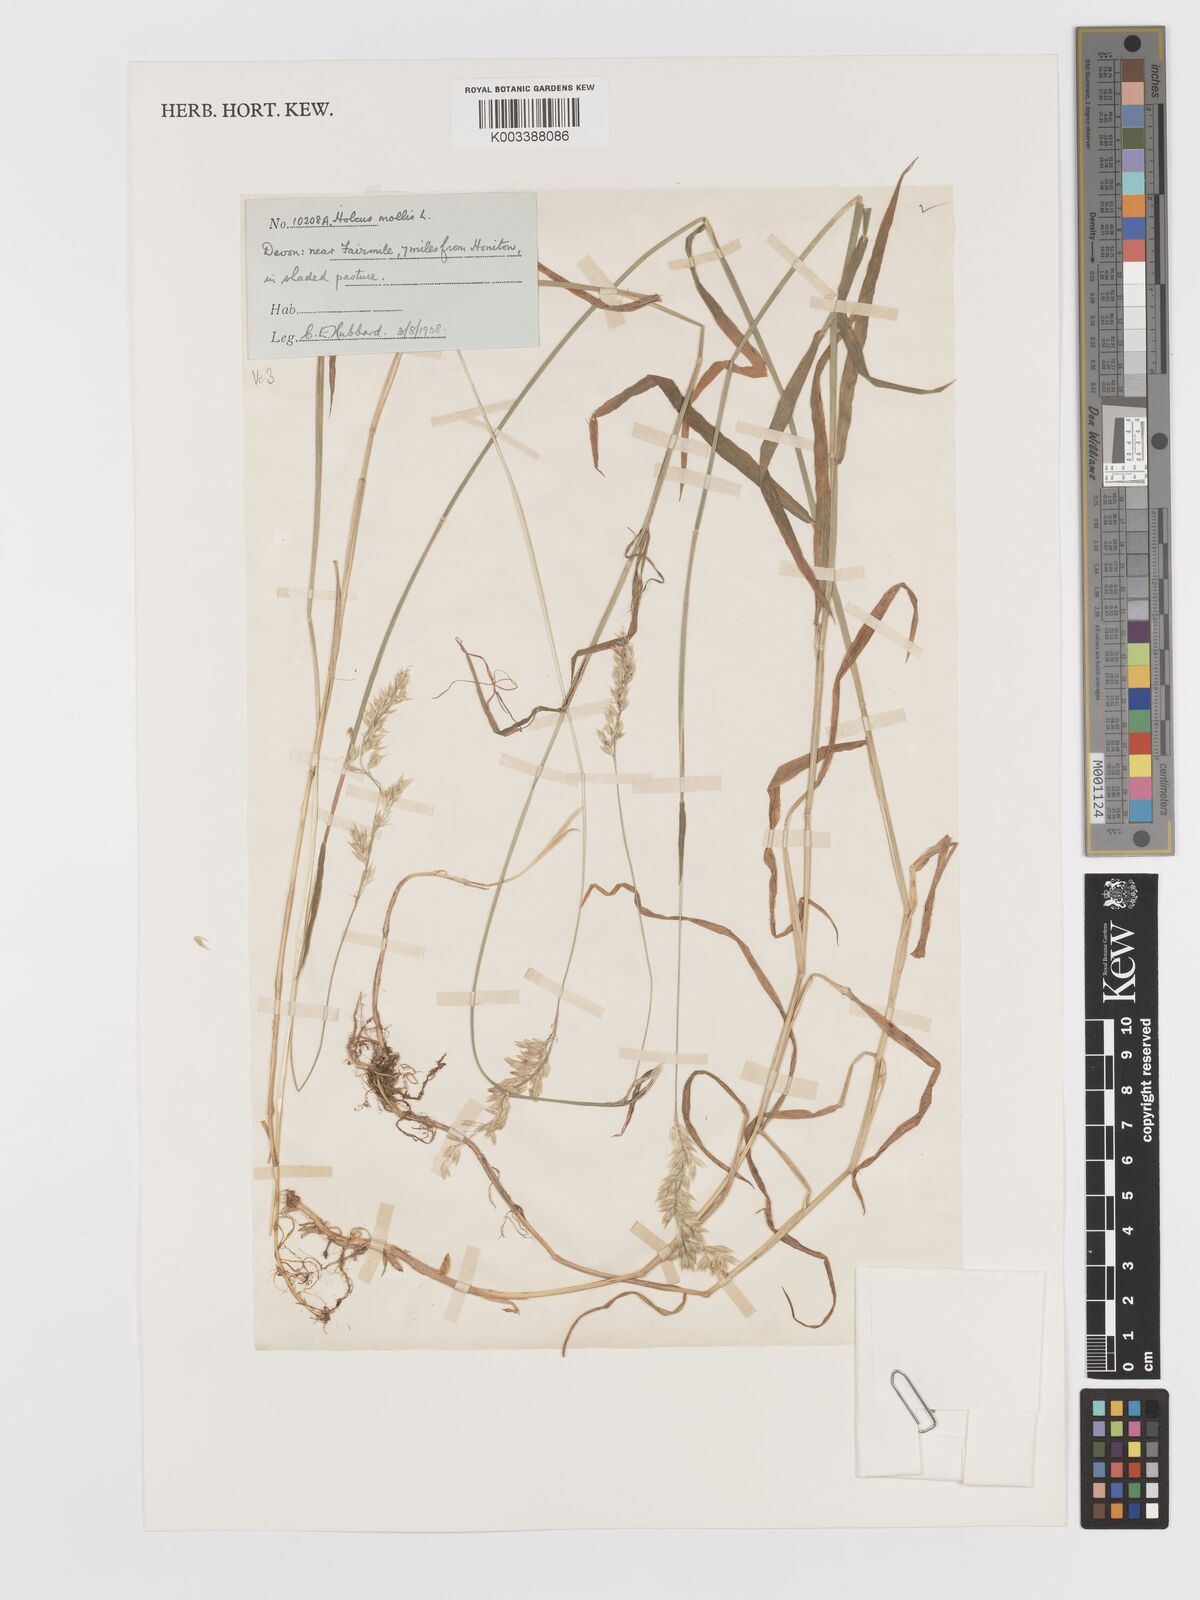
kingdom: Plantae
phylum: Tracheophyta
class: Liliopsida
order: Poales
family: Poaceae
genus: Holcus
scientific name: Holcus mollis
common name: Creeping velvetgrass
